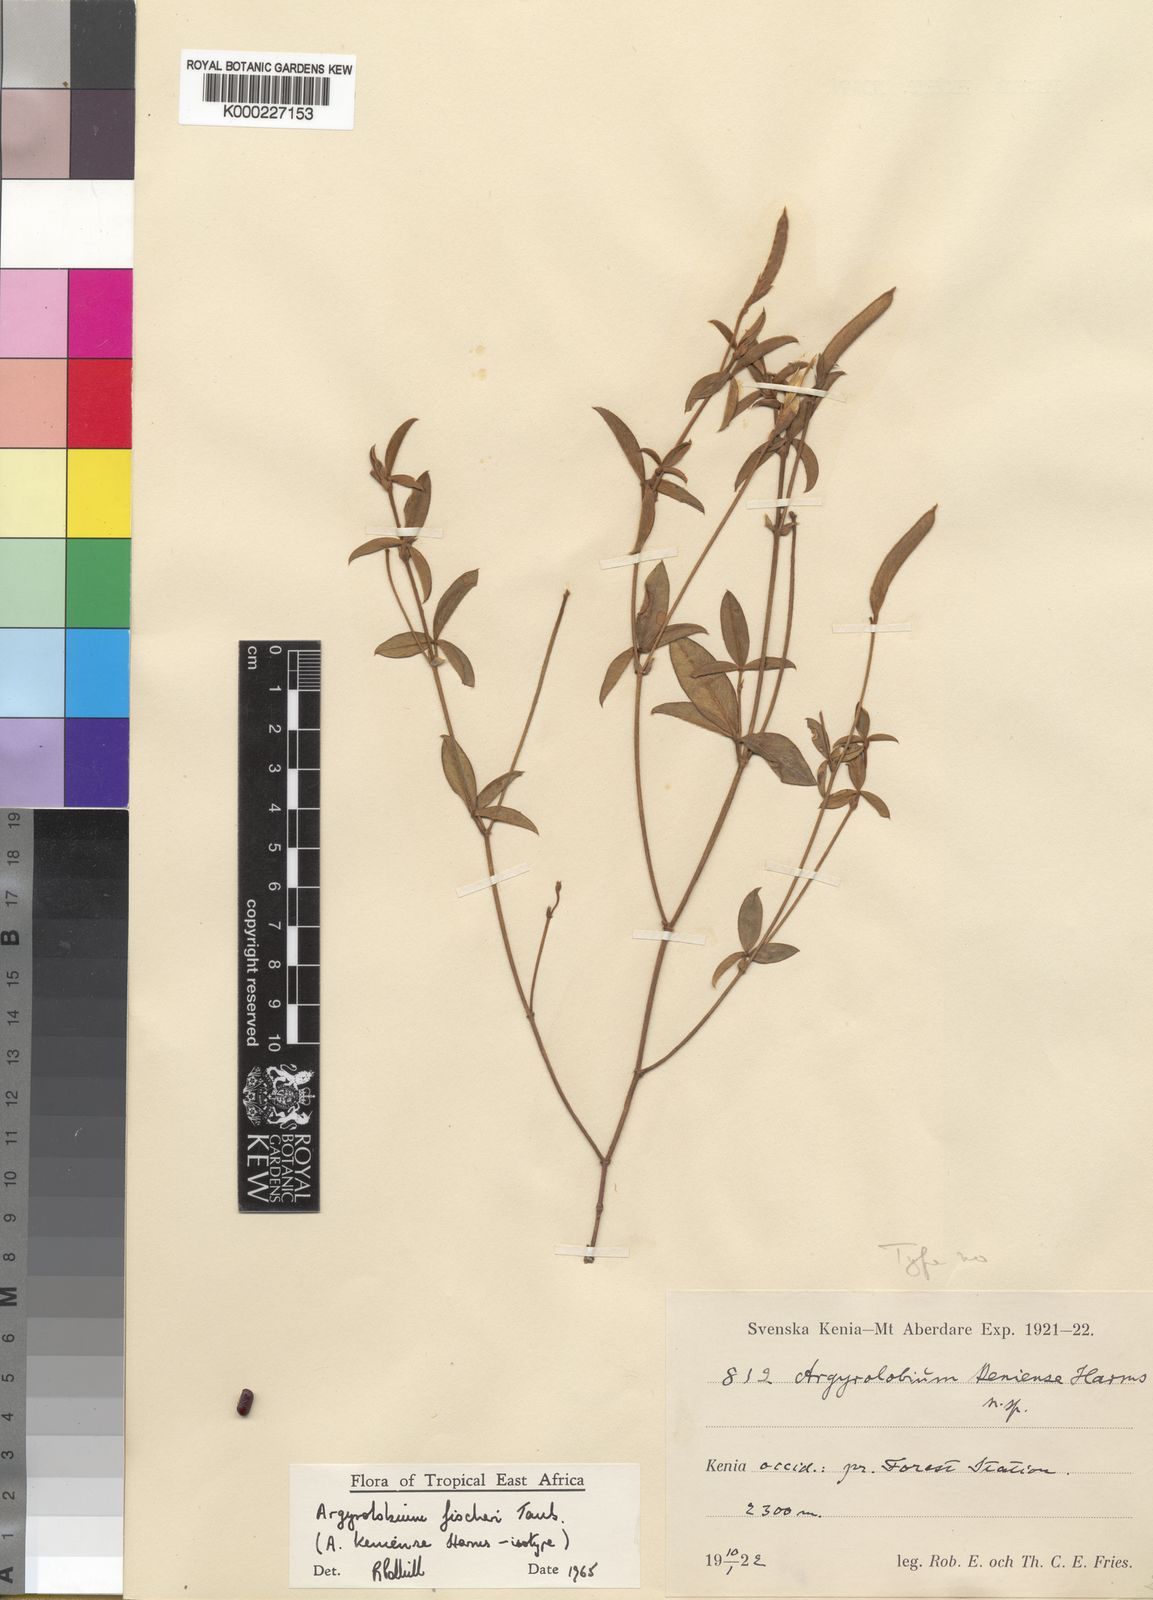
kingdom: Plantae
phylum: Tracheophyta
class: Magnoliopsida
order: Fabales
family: Fabaceae
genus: Argyrolobium
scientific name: Argyrolobium fischeri
